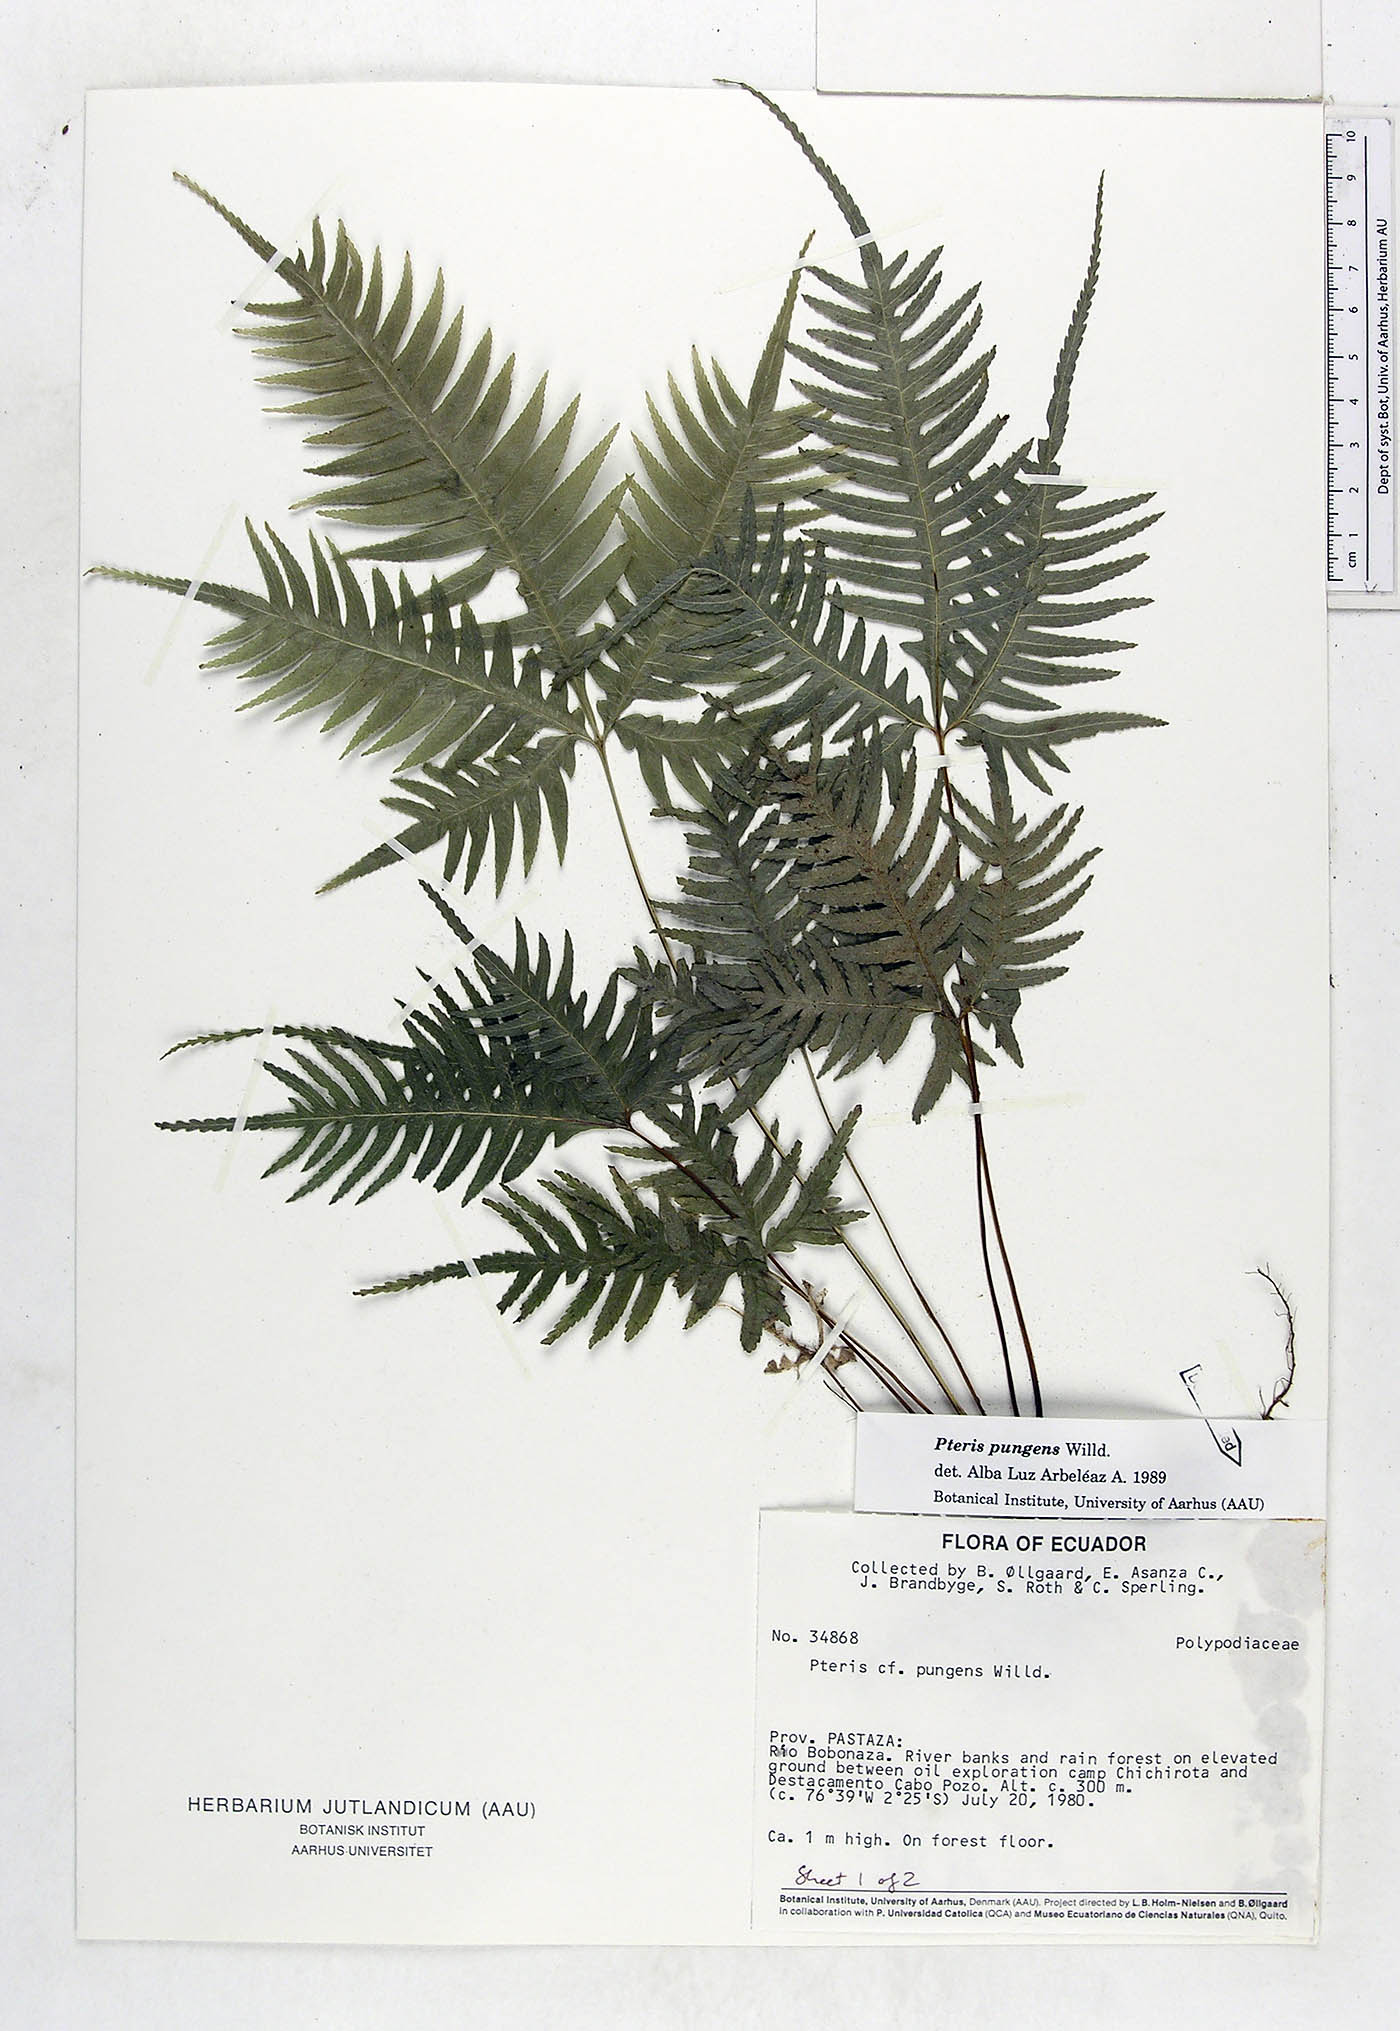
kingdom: Plantae
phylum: Tracheophyta
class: Polypodiopsida
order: Polypodiales
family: Pteridaceae
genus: Pteris
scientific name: Pteris pungens
